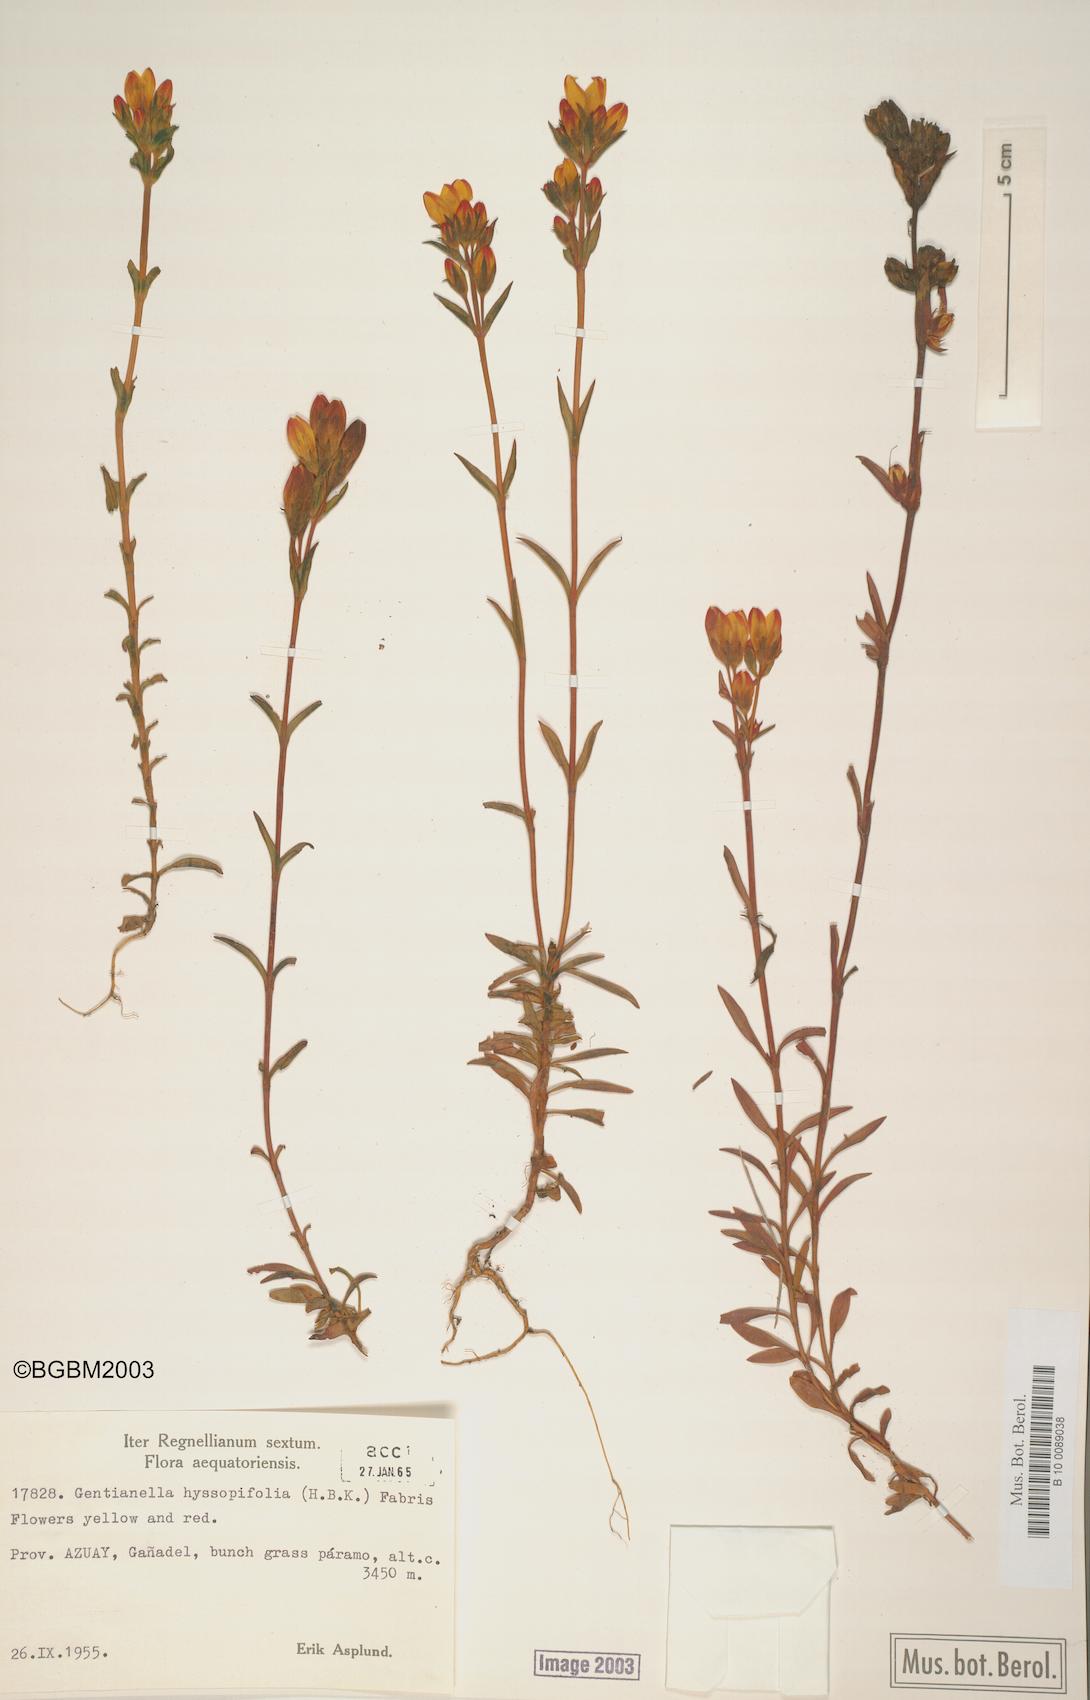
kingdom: Plantae
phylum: Tracheophyta
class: Magnoliopsida
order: Gentianales
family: Gentianaceae
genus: Gentianella
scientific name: Gentianella hyssopifolia
